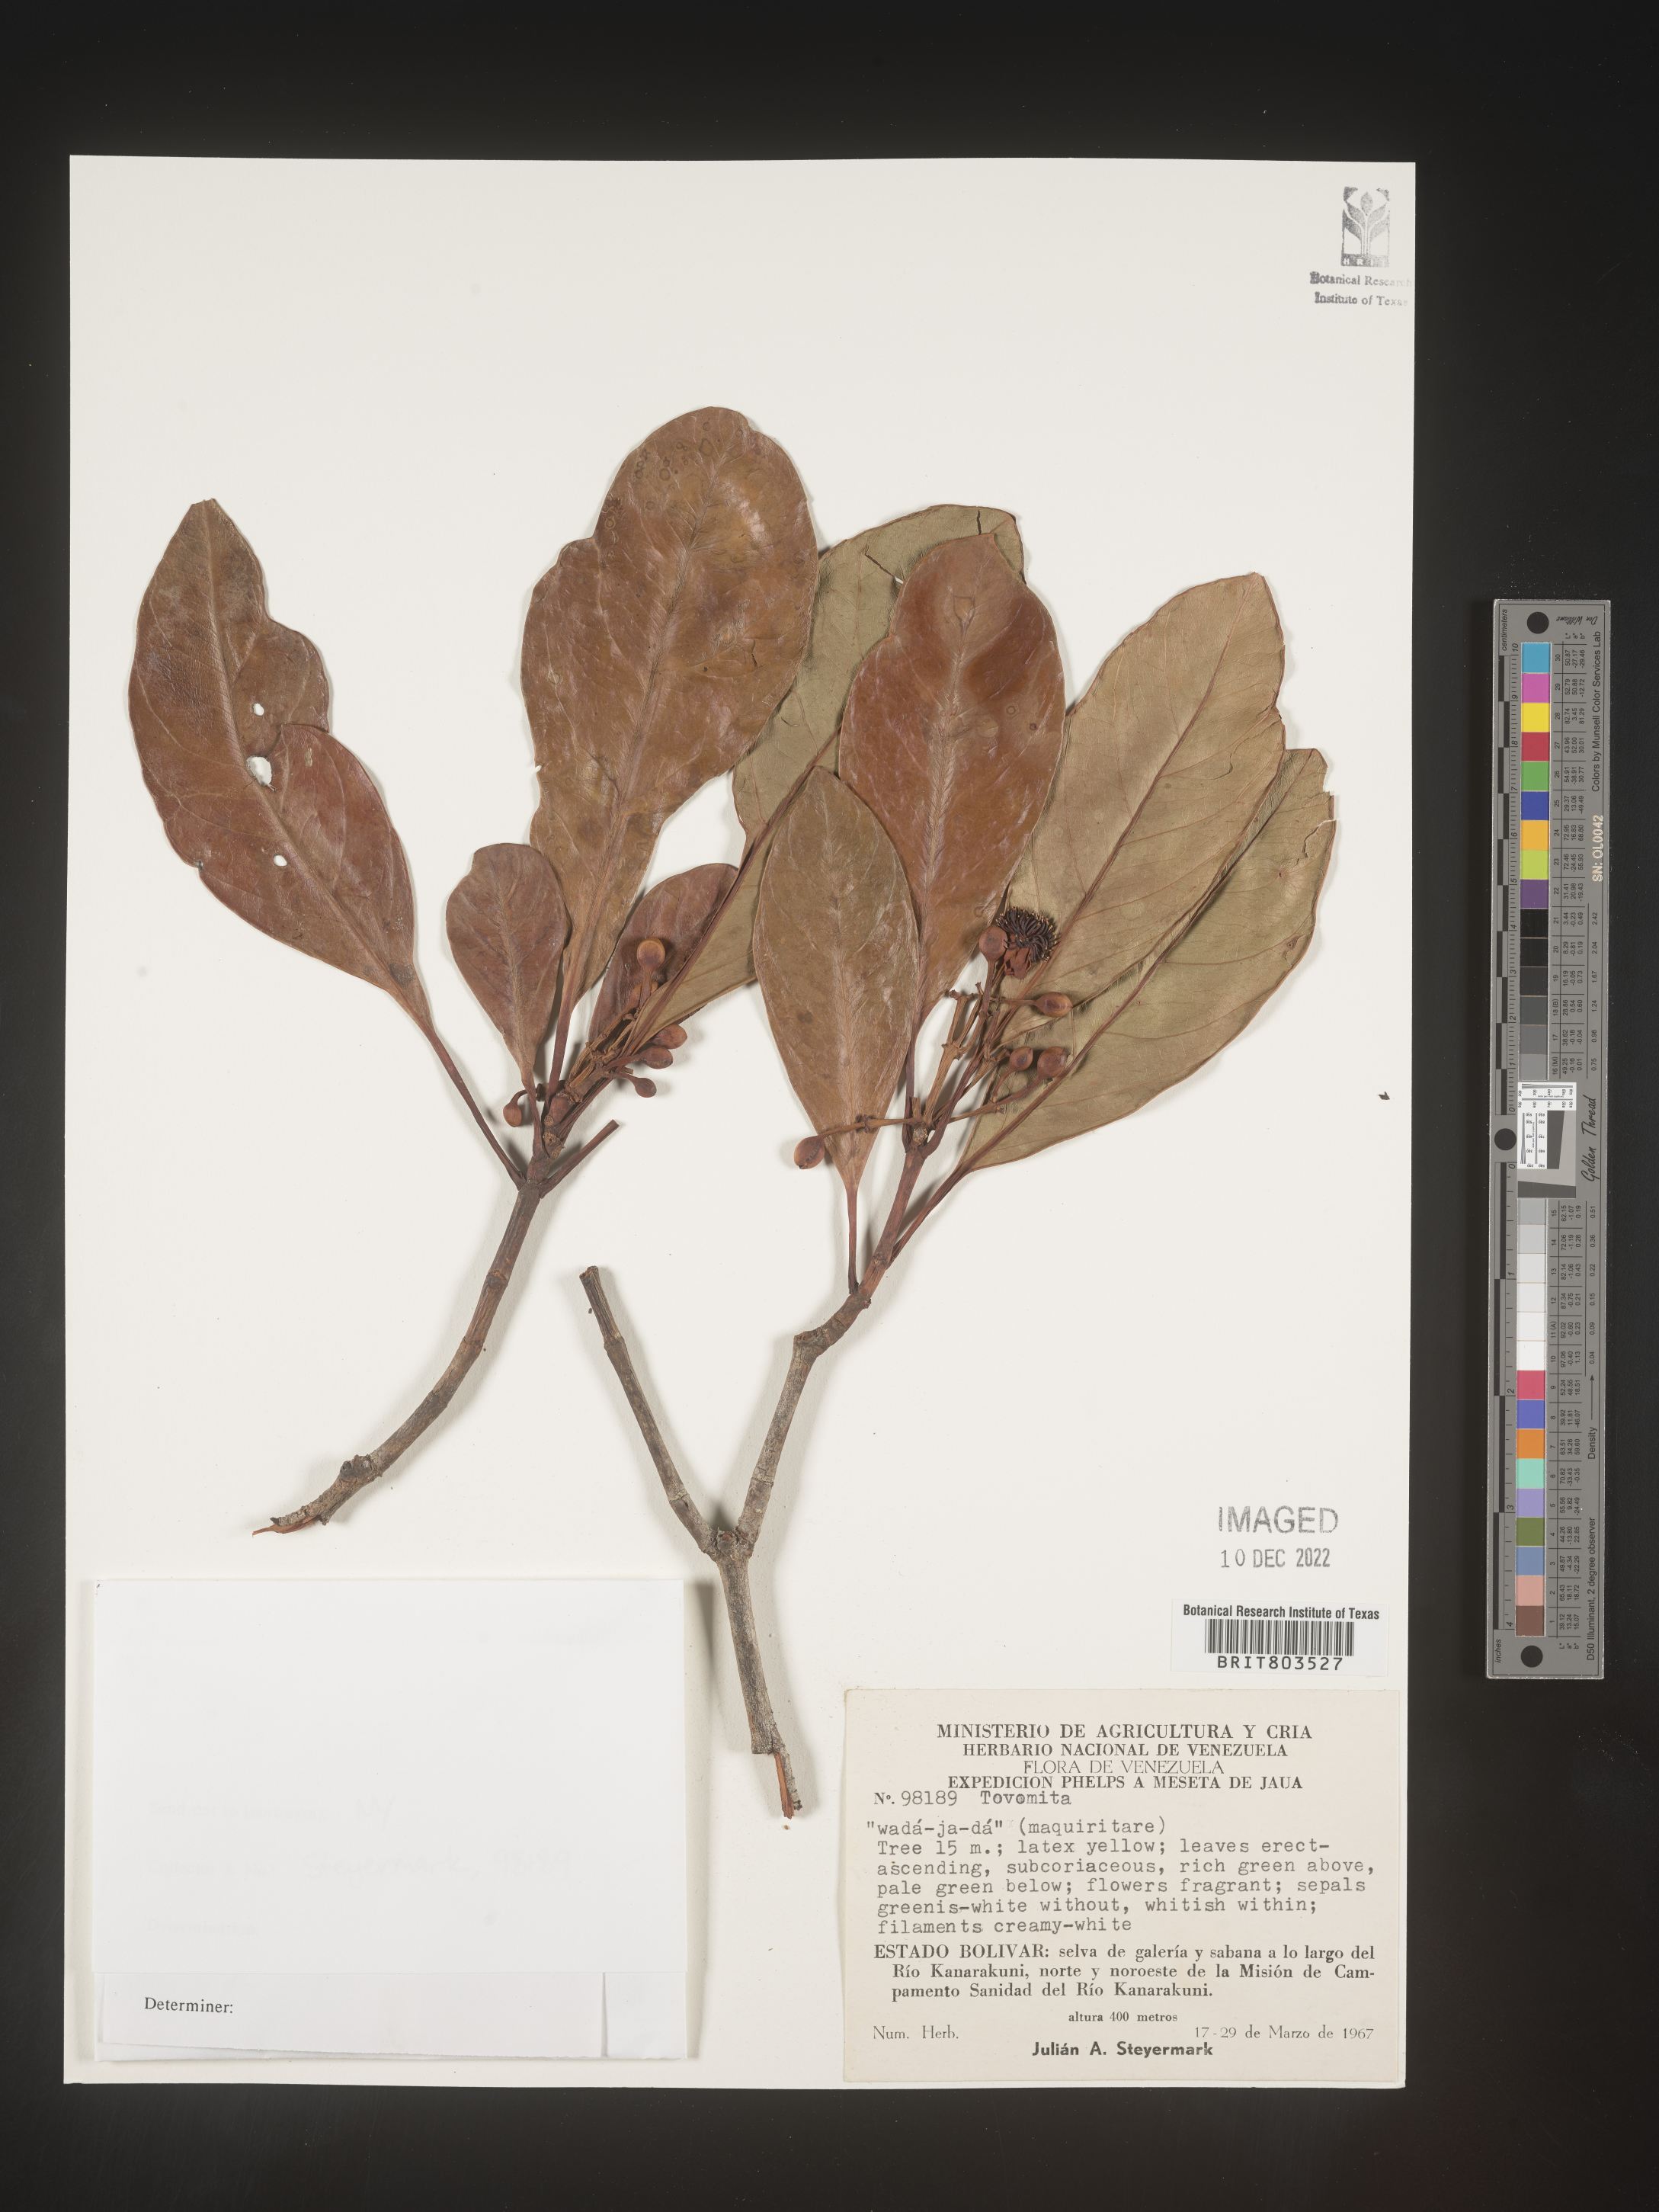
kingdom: Plantae
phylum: Tracheophyta
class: Magnoliopsida
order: Malpighiales
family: Clusiaceae
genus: Tovomita
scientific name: Tovomita
